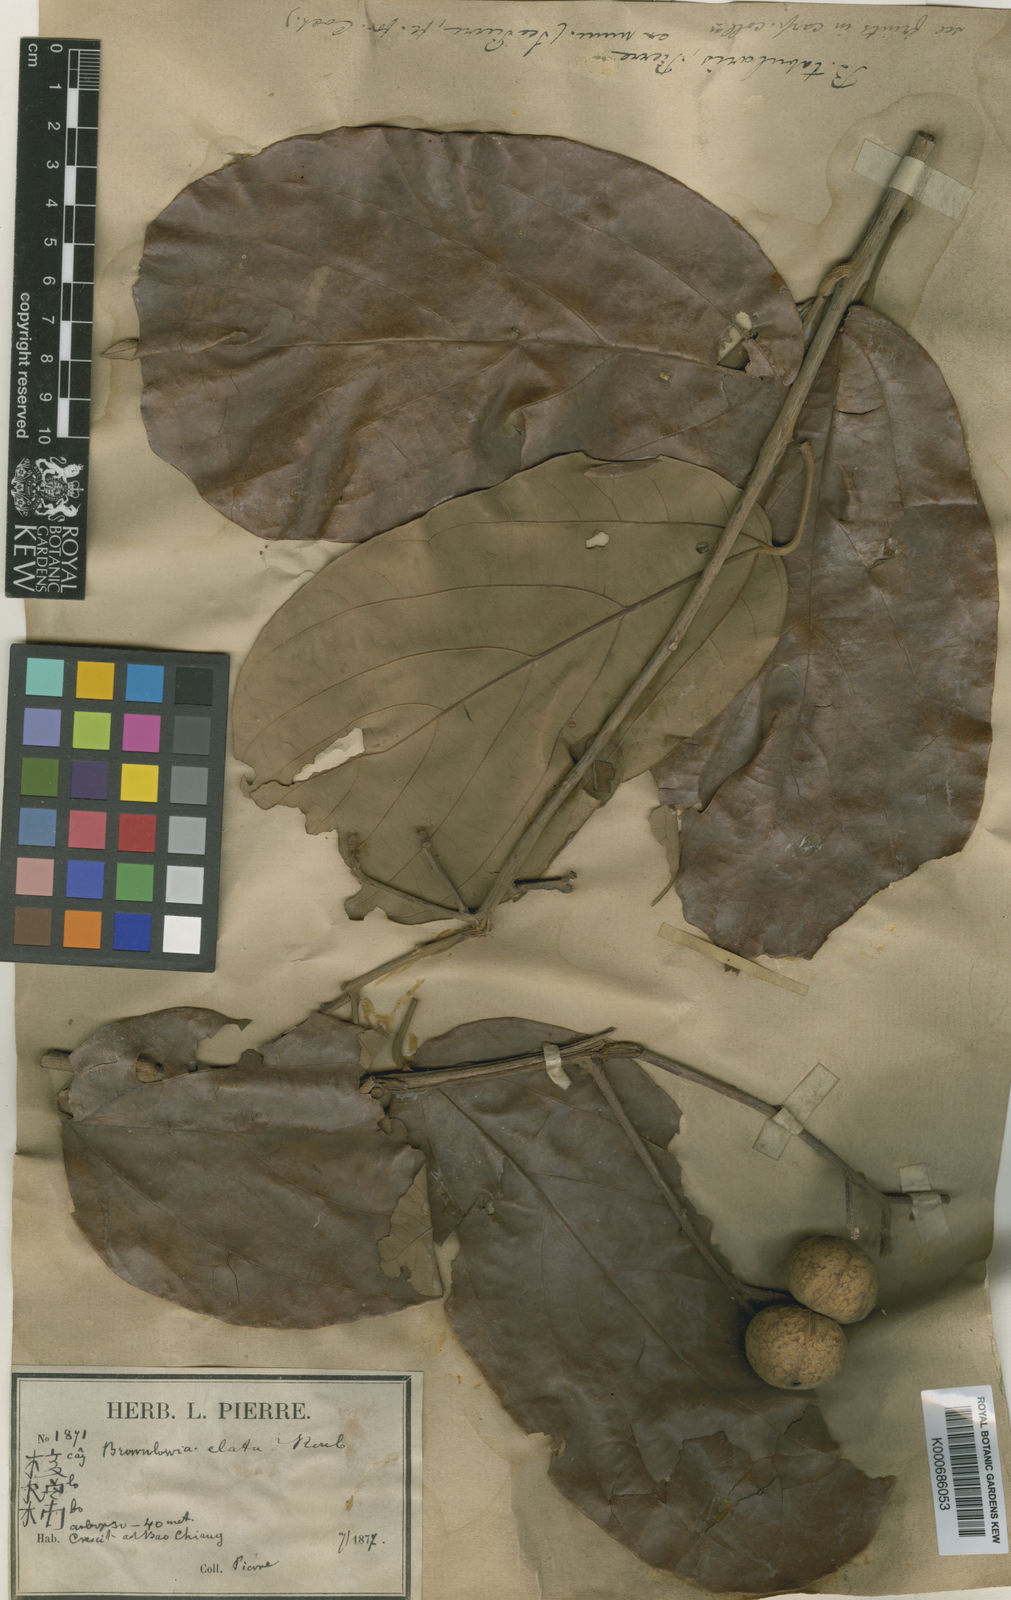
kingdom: Plantae
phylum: Tracheophyta
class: Magnoliopsida
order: Malvales
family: Malvaceae
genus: Brownlowia
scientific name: Brownlowia tabularis
